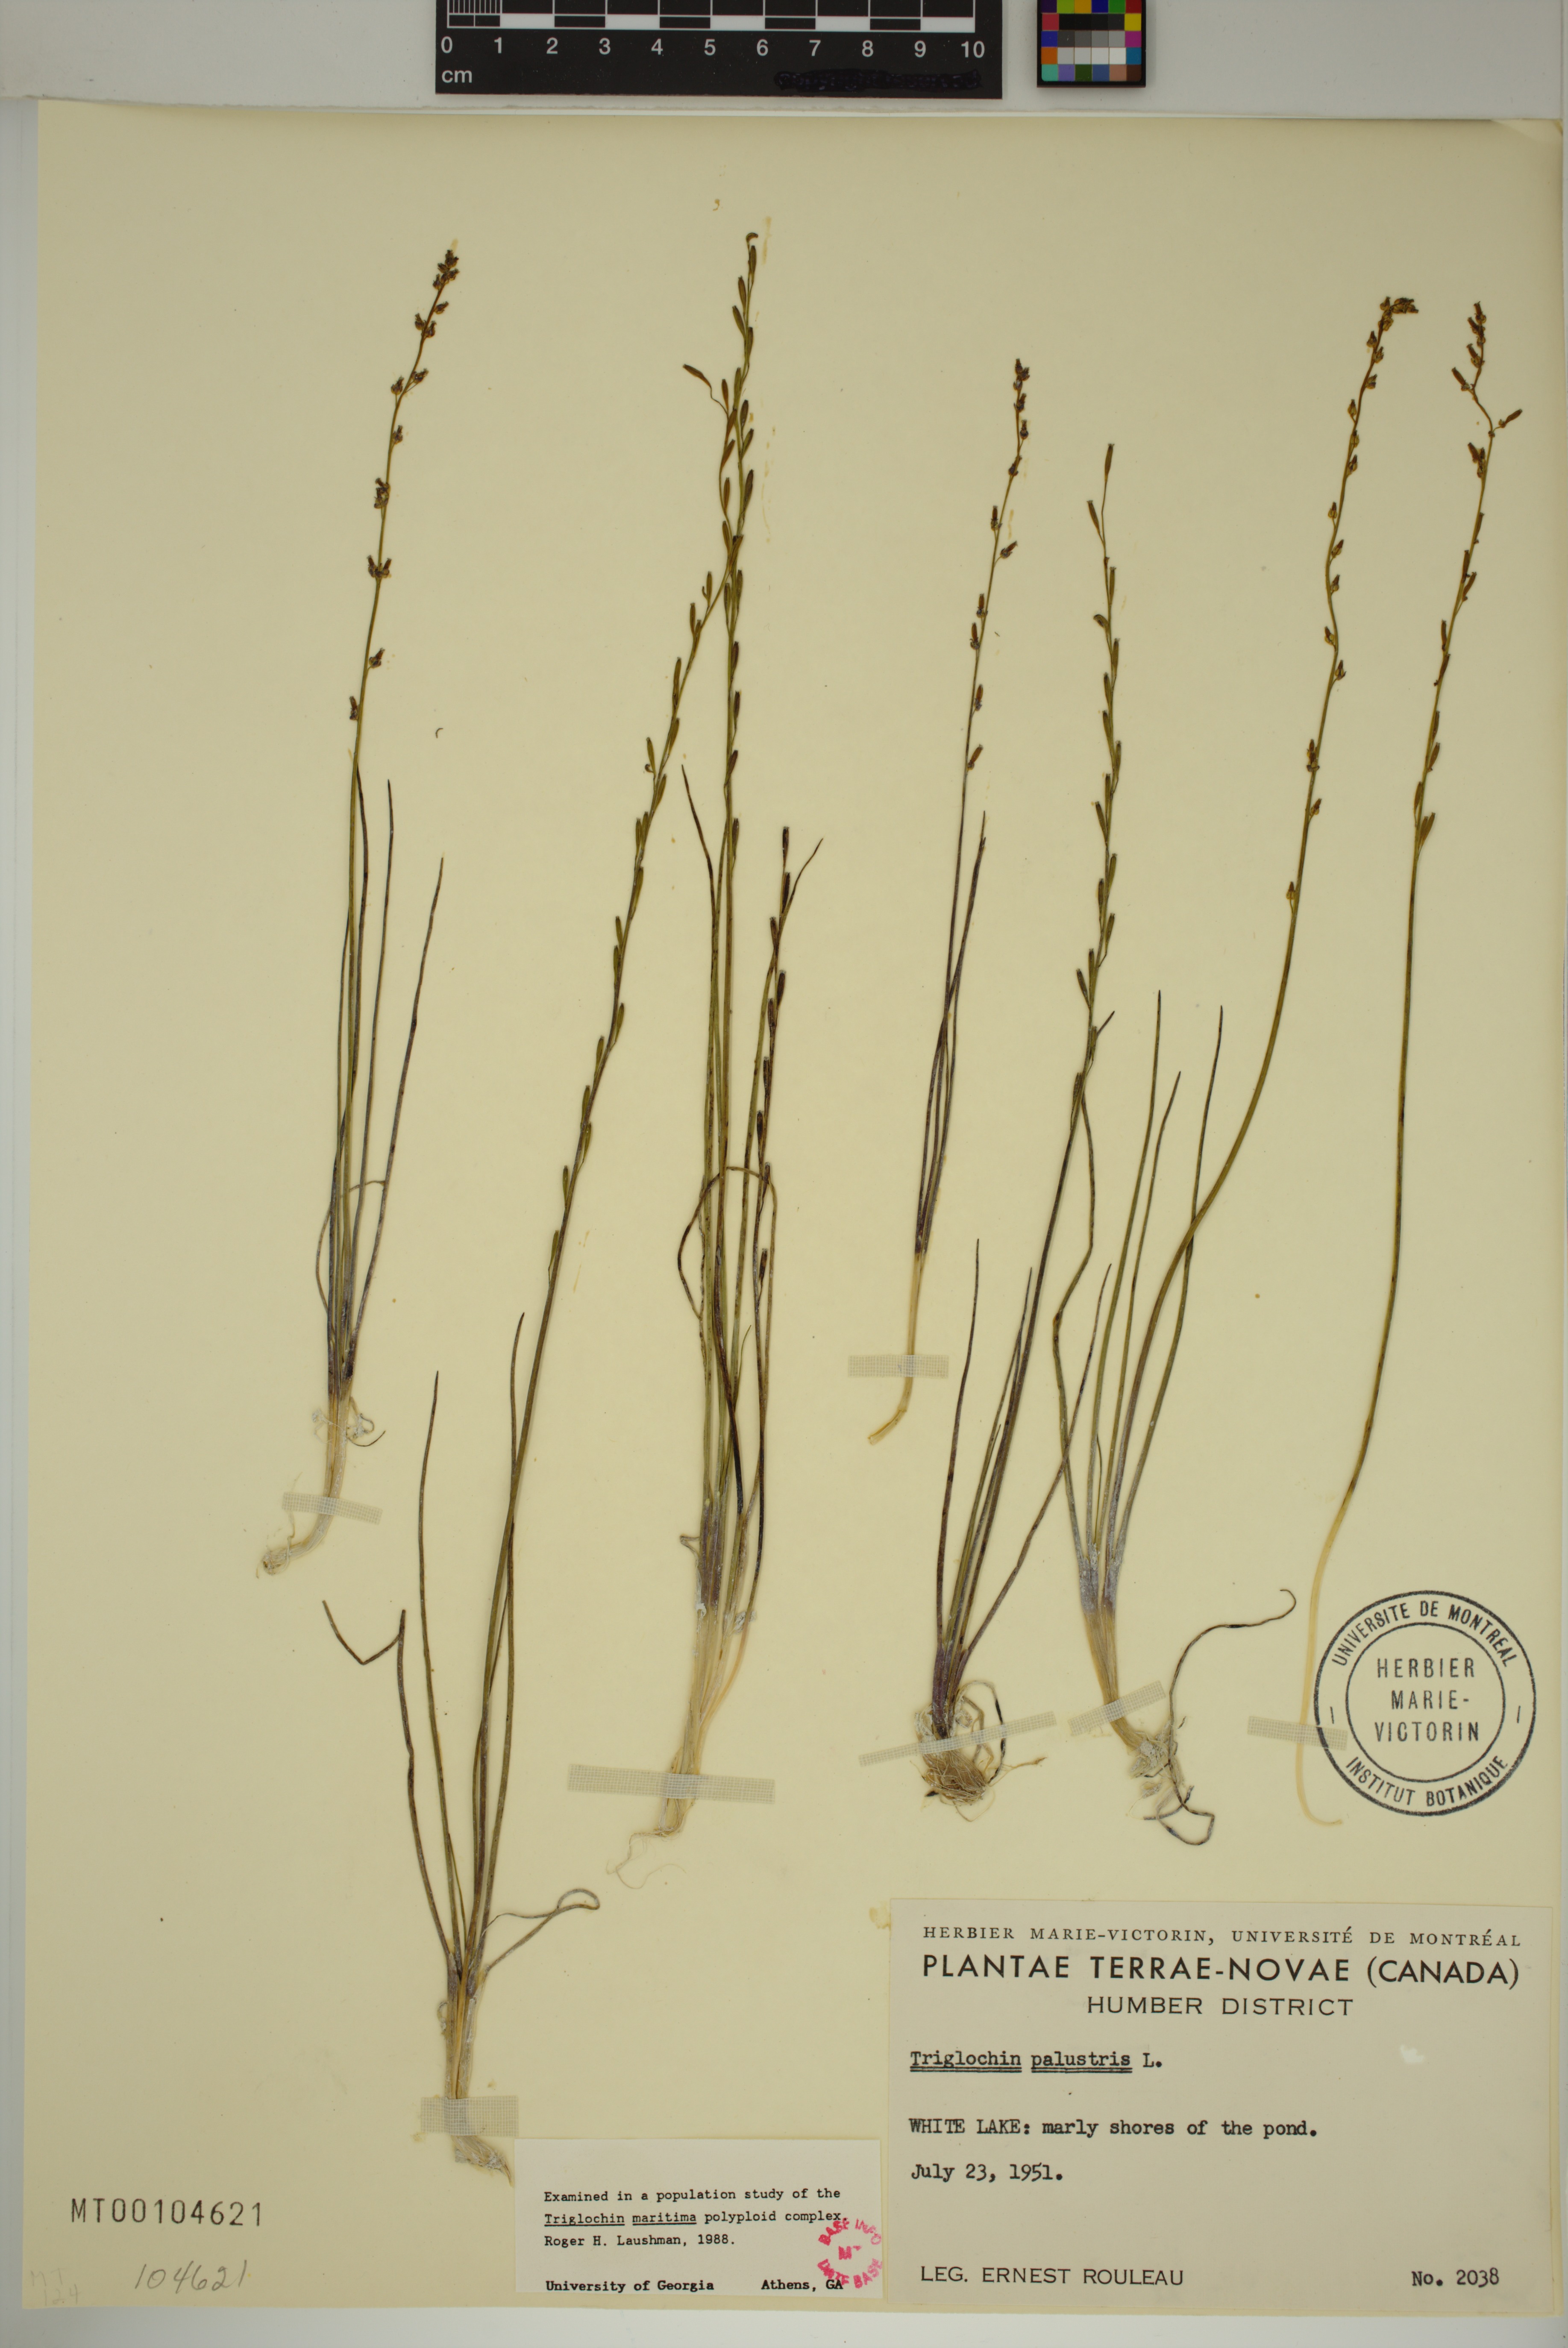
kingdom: Plantae
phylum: Tracheophyta
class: Liliopsida
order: Alismatales
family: Juncaginaceae
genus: Triglochin
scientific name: Triglochin palustris
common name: Marsh arrowgrass
